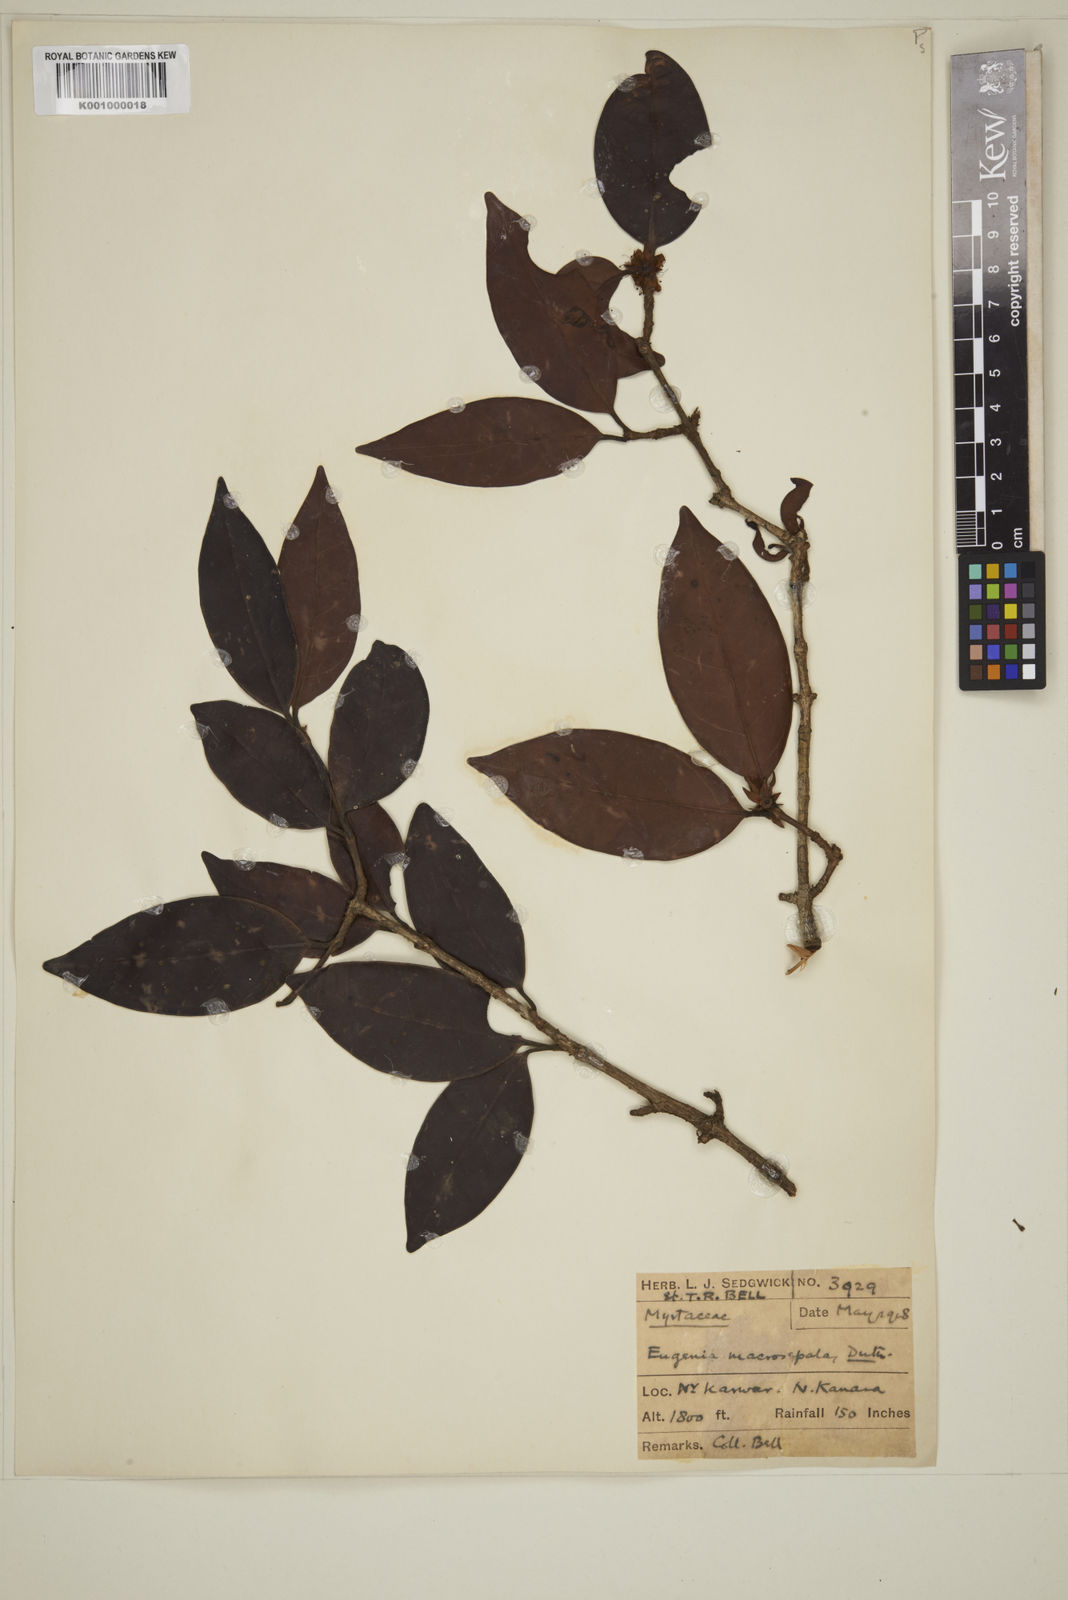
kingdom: Plantae
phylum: Tracheophyta
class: Magnoliopsida
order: Myrtales
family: Myrtaceae
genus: Eugenia
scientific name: Eugenia macrosepala
